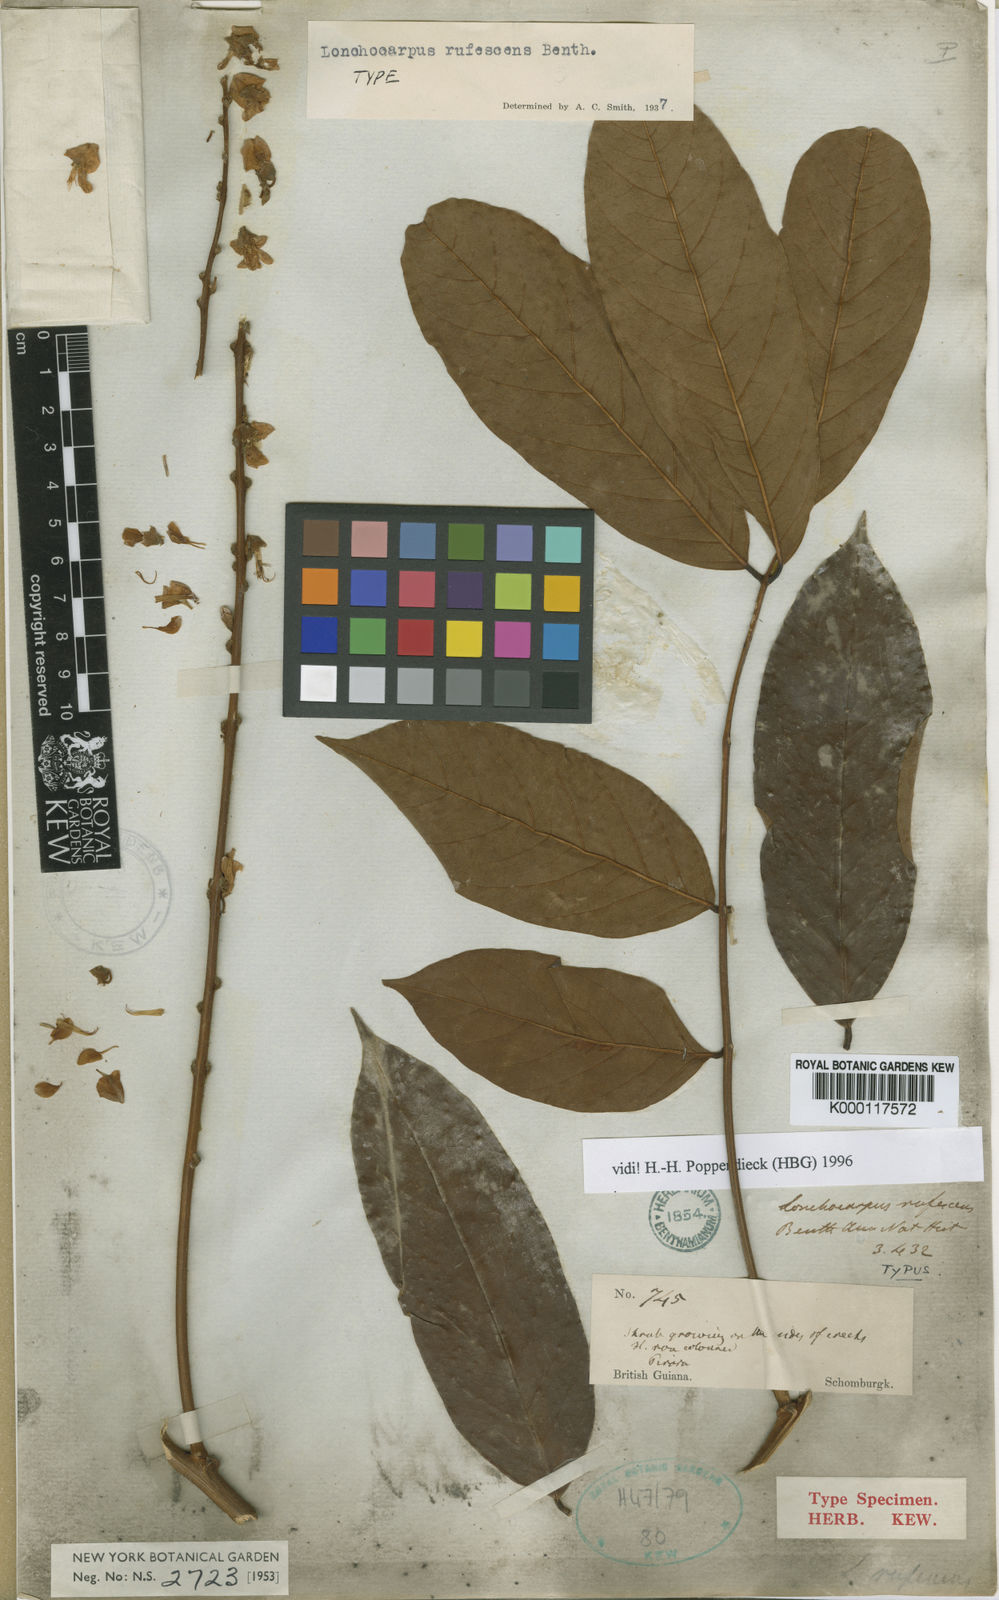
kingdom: Plantae
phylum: Tracheophyta
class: Magnoliopsida
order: Fabales
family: Fabaceae
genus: Deguelia
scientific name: Deguelia rufescens
